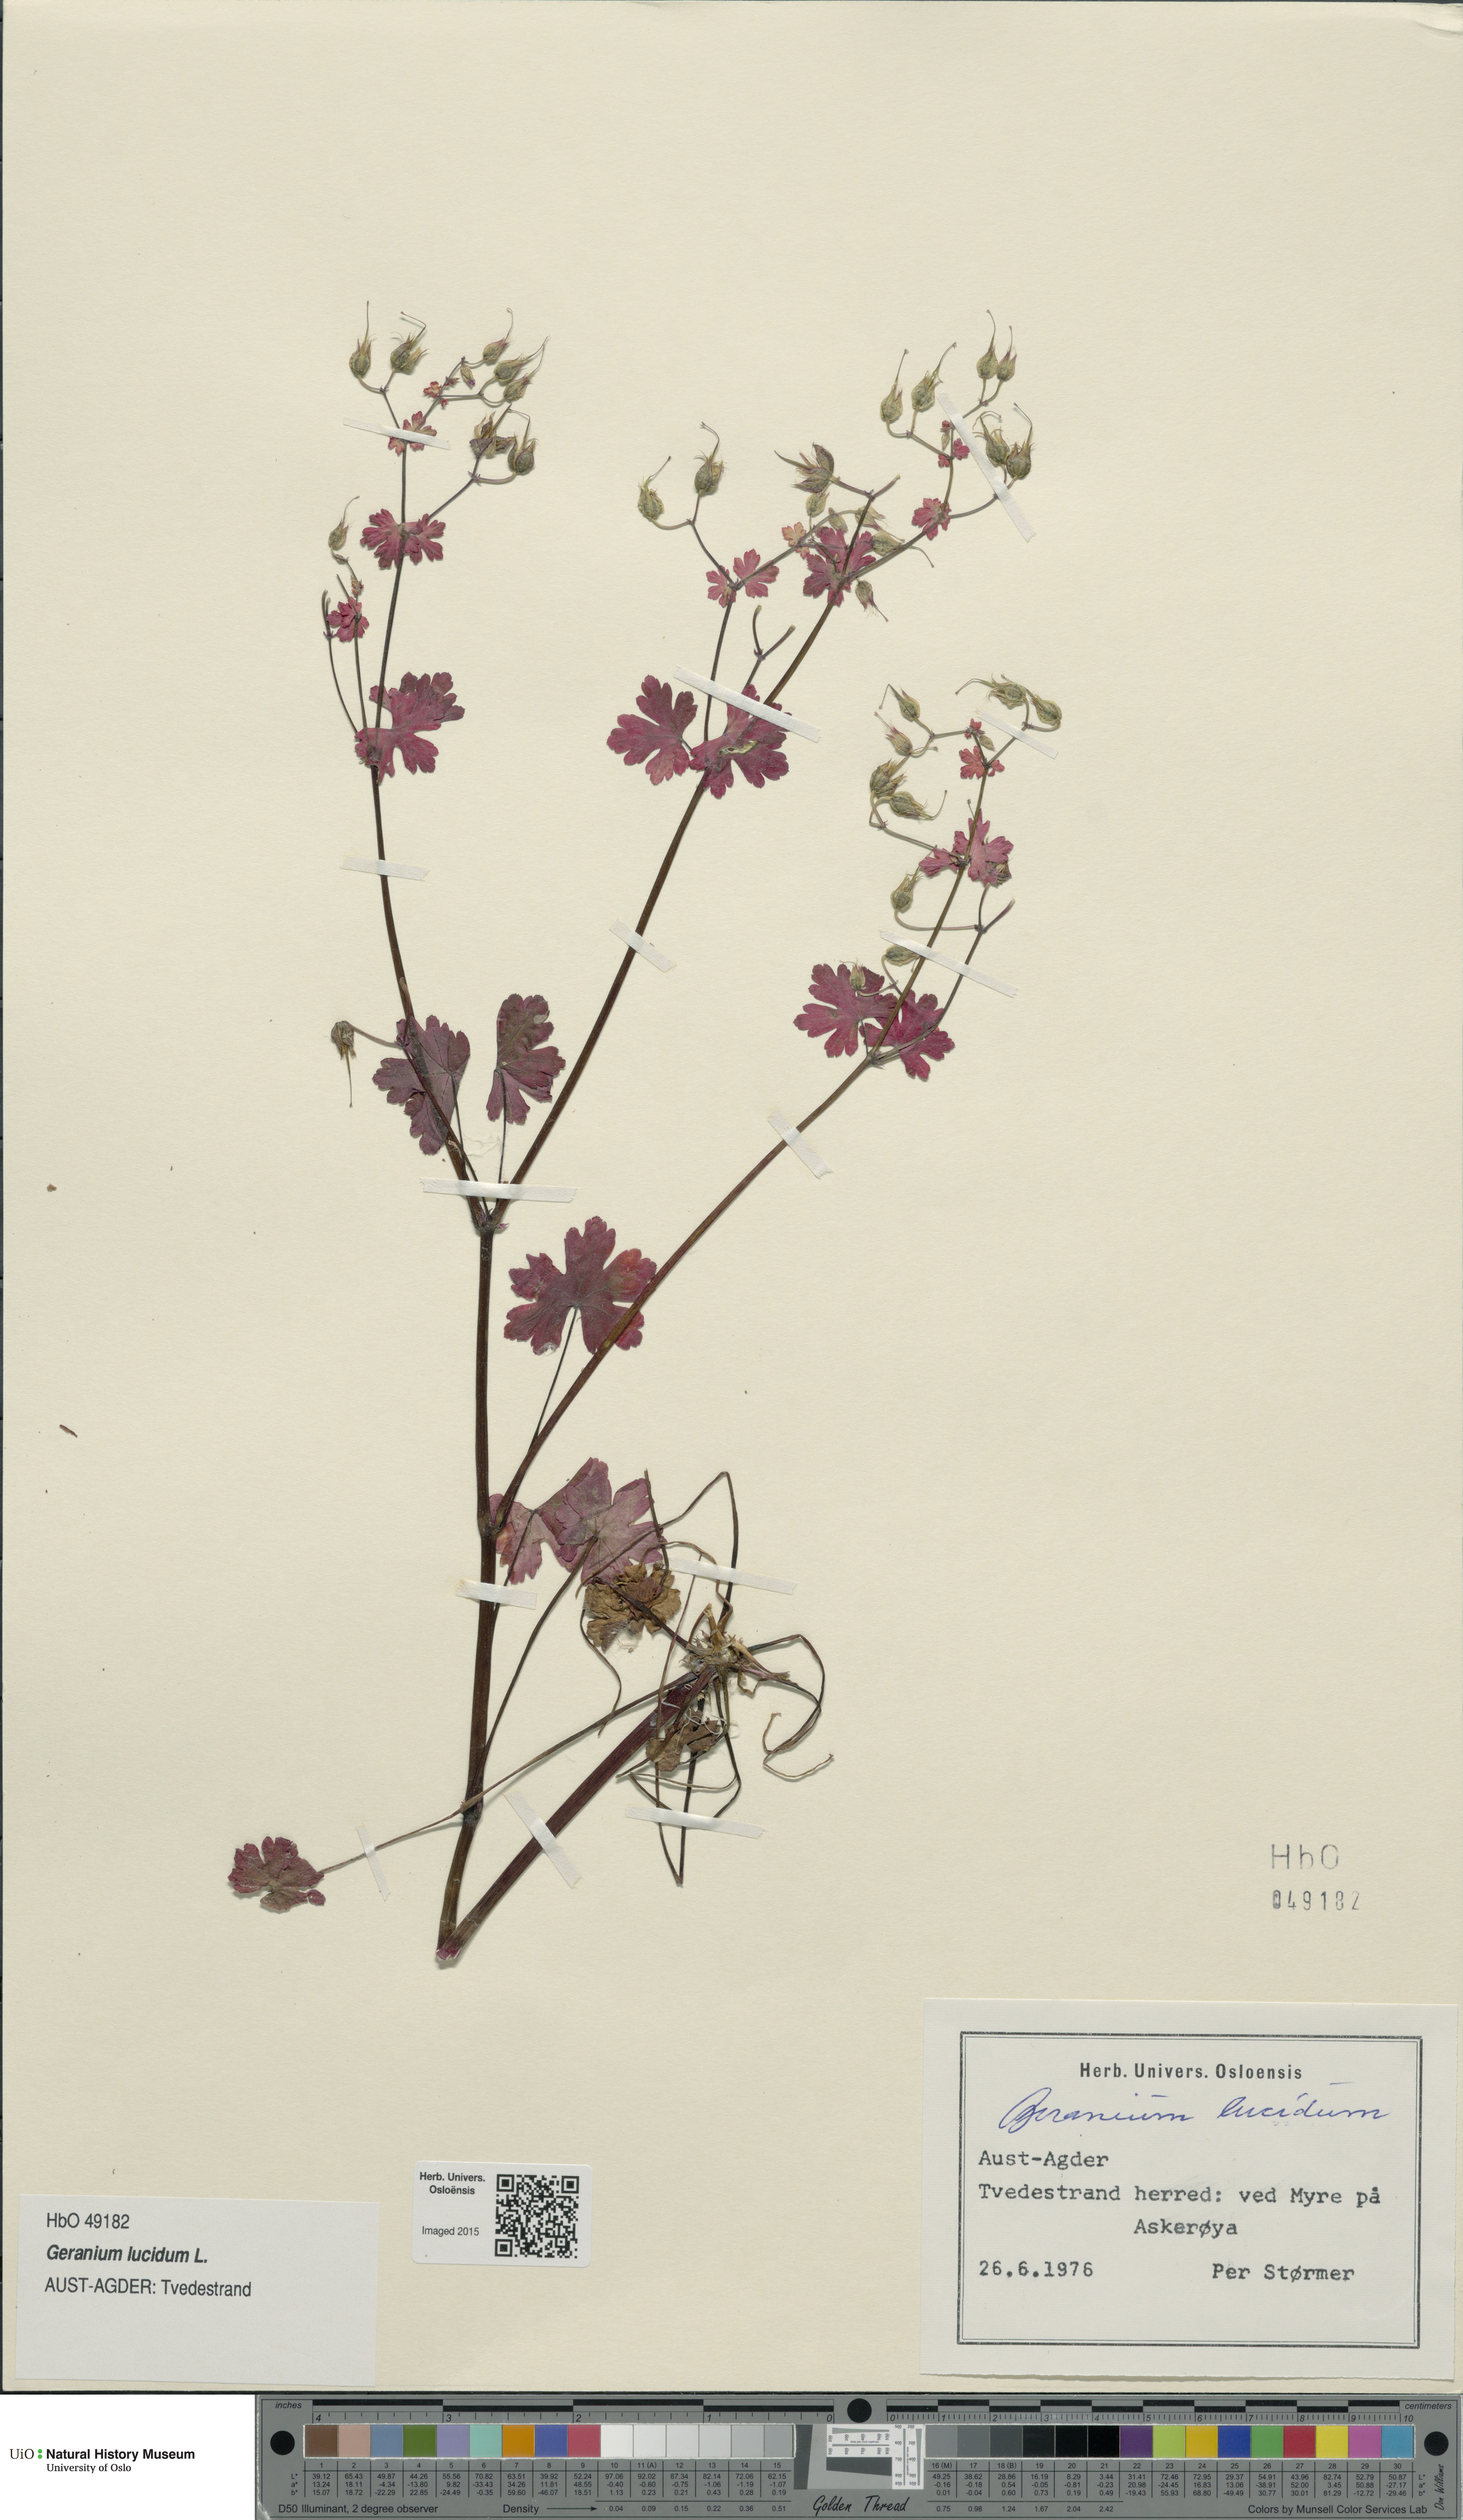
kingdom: Plantae
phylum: Tracheophyta
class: Magnoliopsida
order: Geraniales
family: Geraniaceae
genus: Geranium
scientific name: Geranium lucidum
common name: Shining crane's-bill
